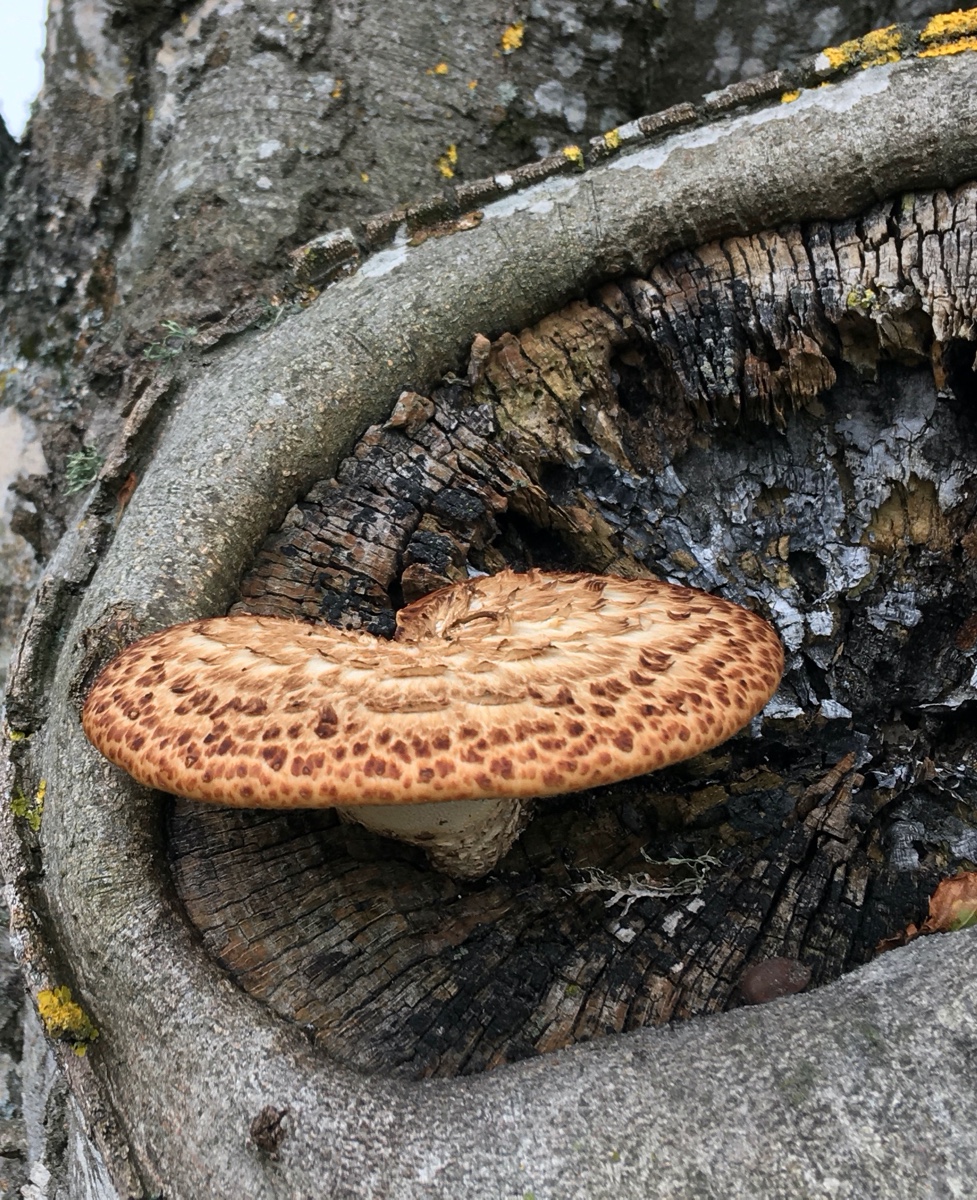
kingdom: Fungi
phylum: Basidiomycota
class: Agaricomycetes
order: Polyporales
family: Polyporaceae
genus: Cerioporus
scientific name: Cerioporus squamosus
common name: skællet stilkporesvamp
